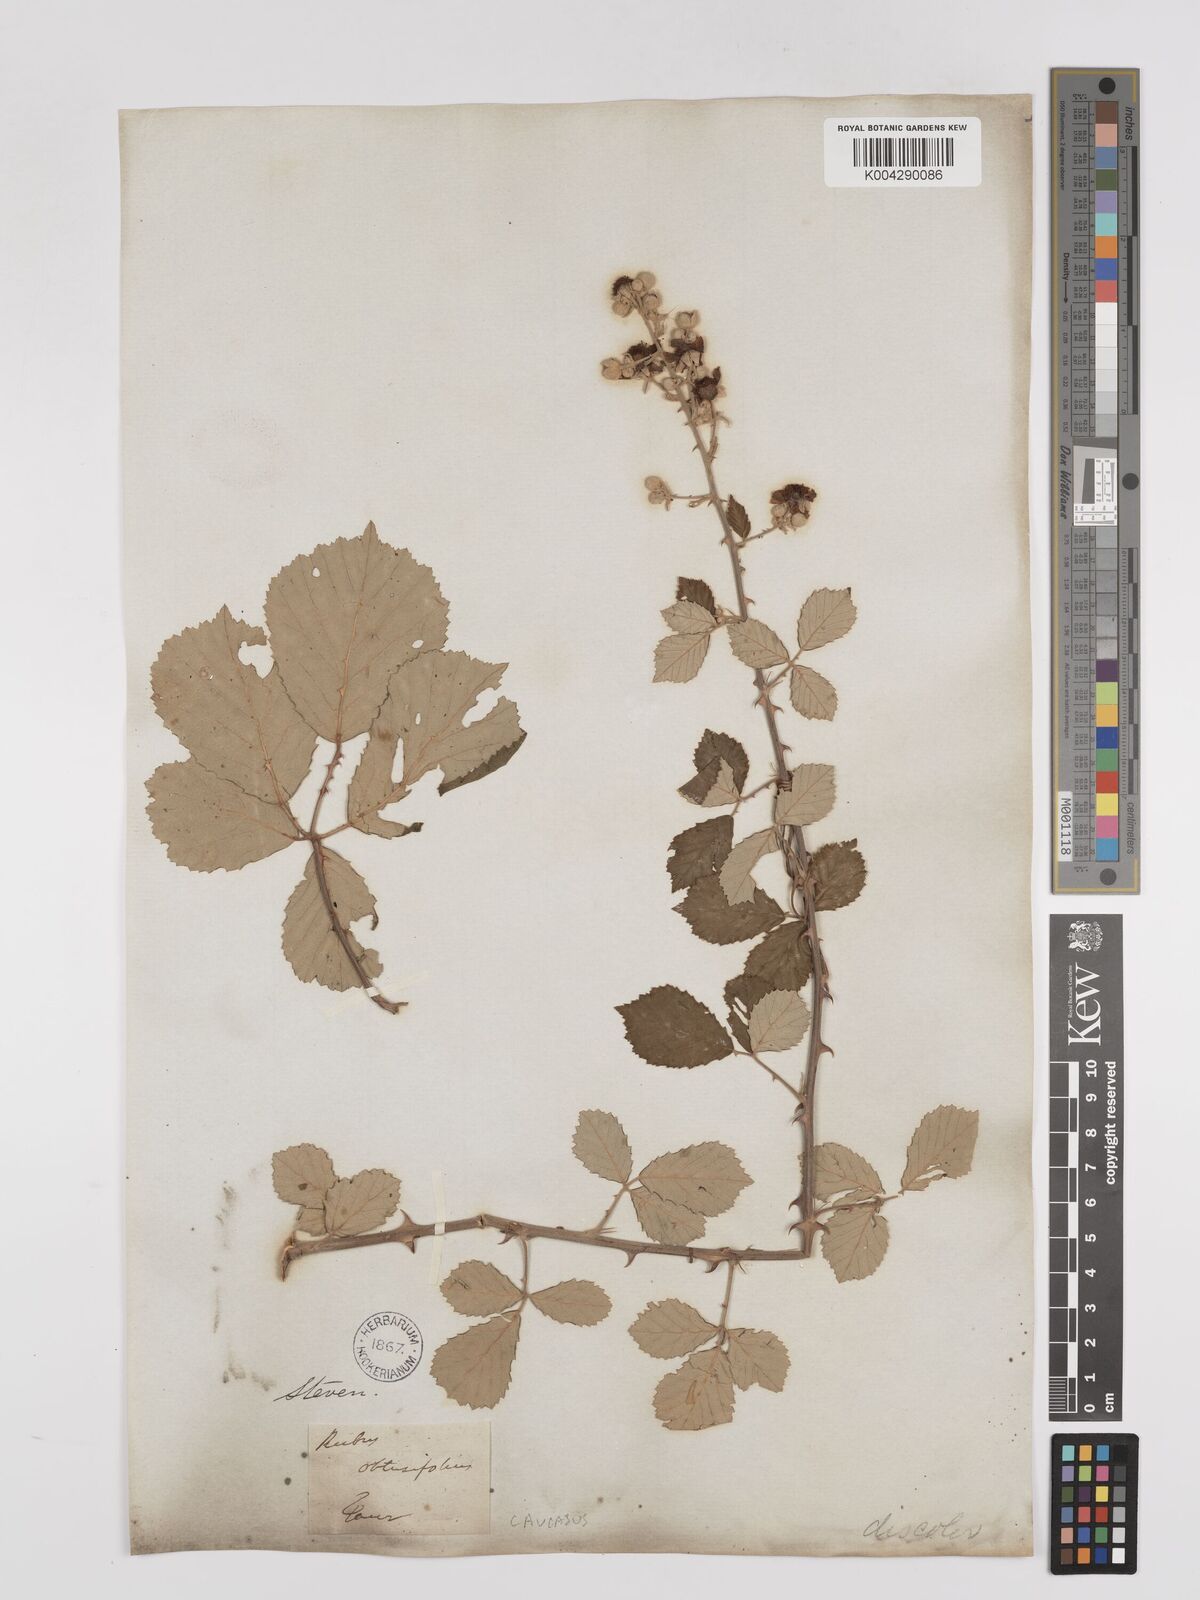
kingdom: Plantae
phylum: Tracheophyta
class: Magnoliopsida
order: Rosales
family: Rosaceae
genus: Rubus
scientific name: Rubus sanctus
